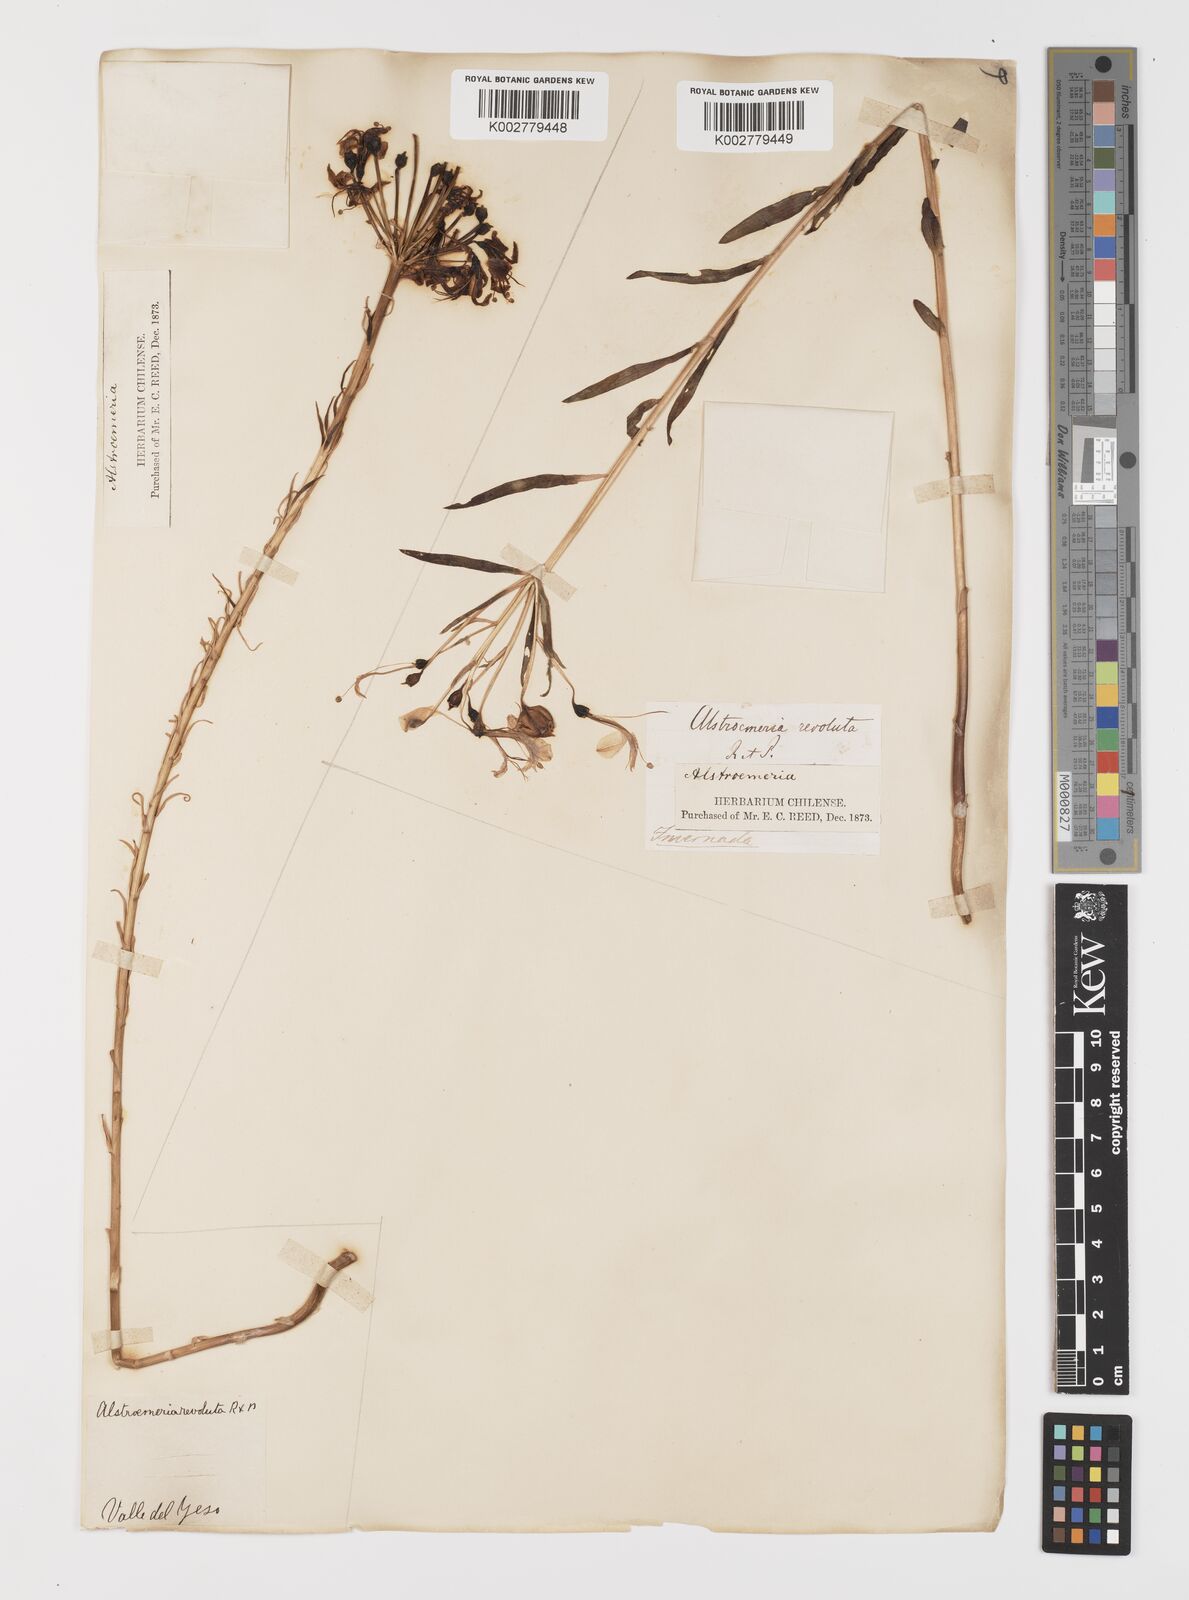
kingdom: Plantae
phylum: Tracheophyta
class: Liliopsida
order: Liliales
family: Alstroemeriaceae
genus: Alstroemeria
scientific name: Alstroemeria revoluta
